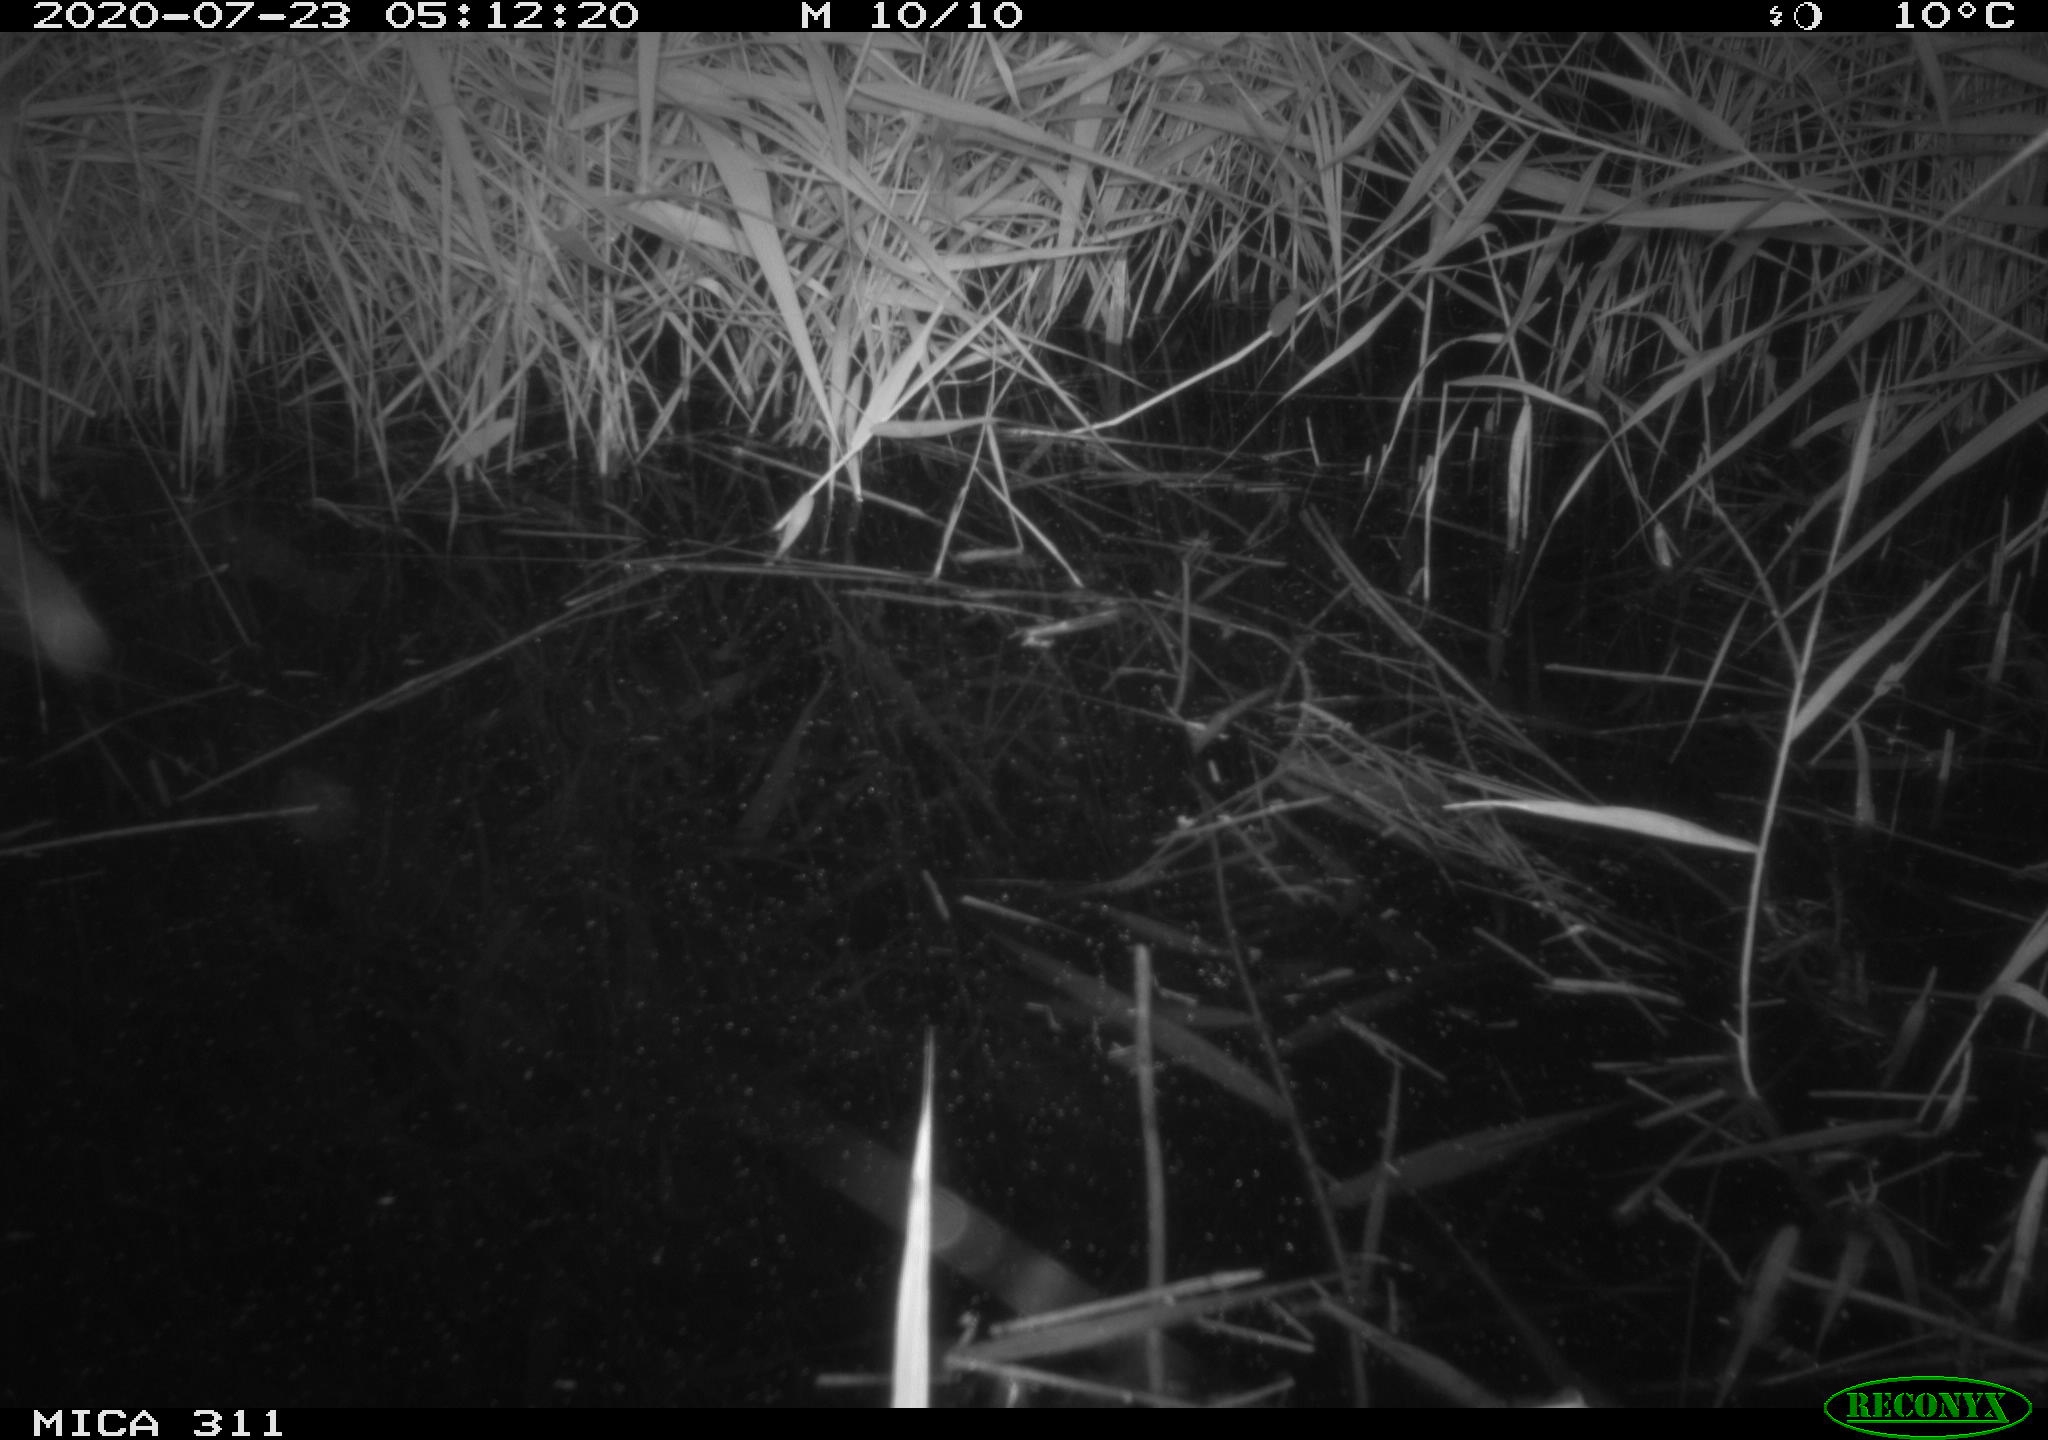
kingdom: Animalia
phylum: Chordata
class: Mammalia
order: Rodentia
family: Muridae
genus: Rattus
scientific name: Rattus norvegicus
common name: Brown rat
